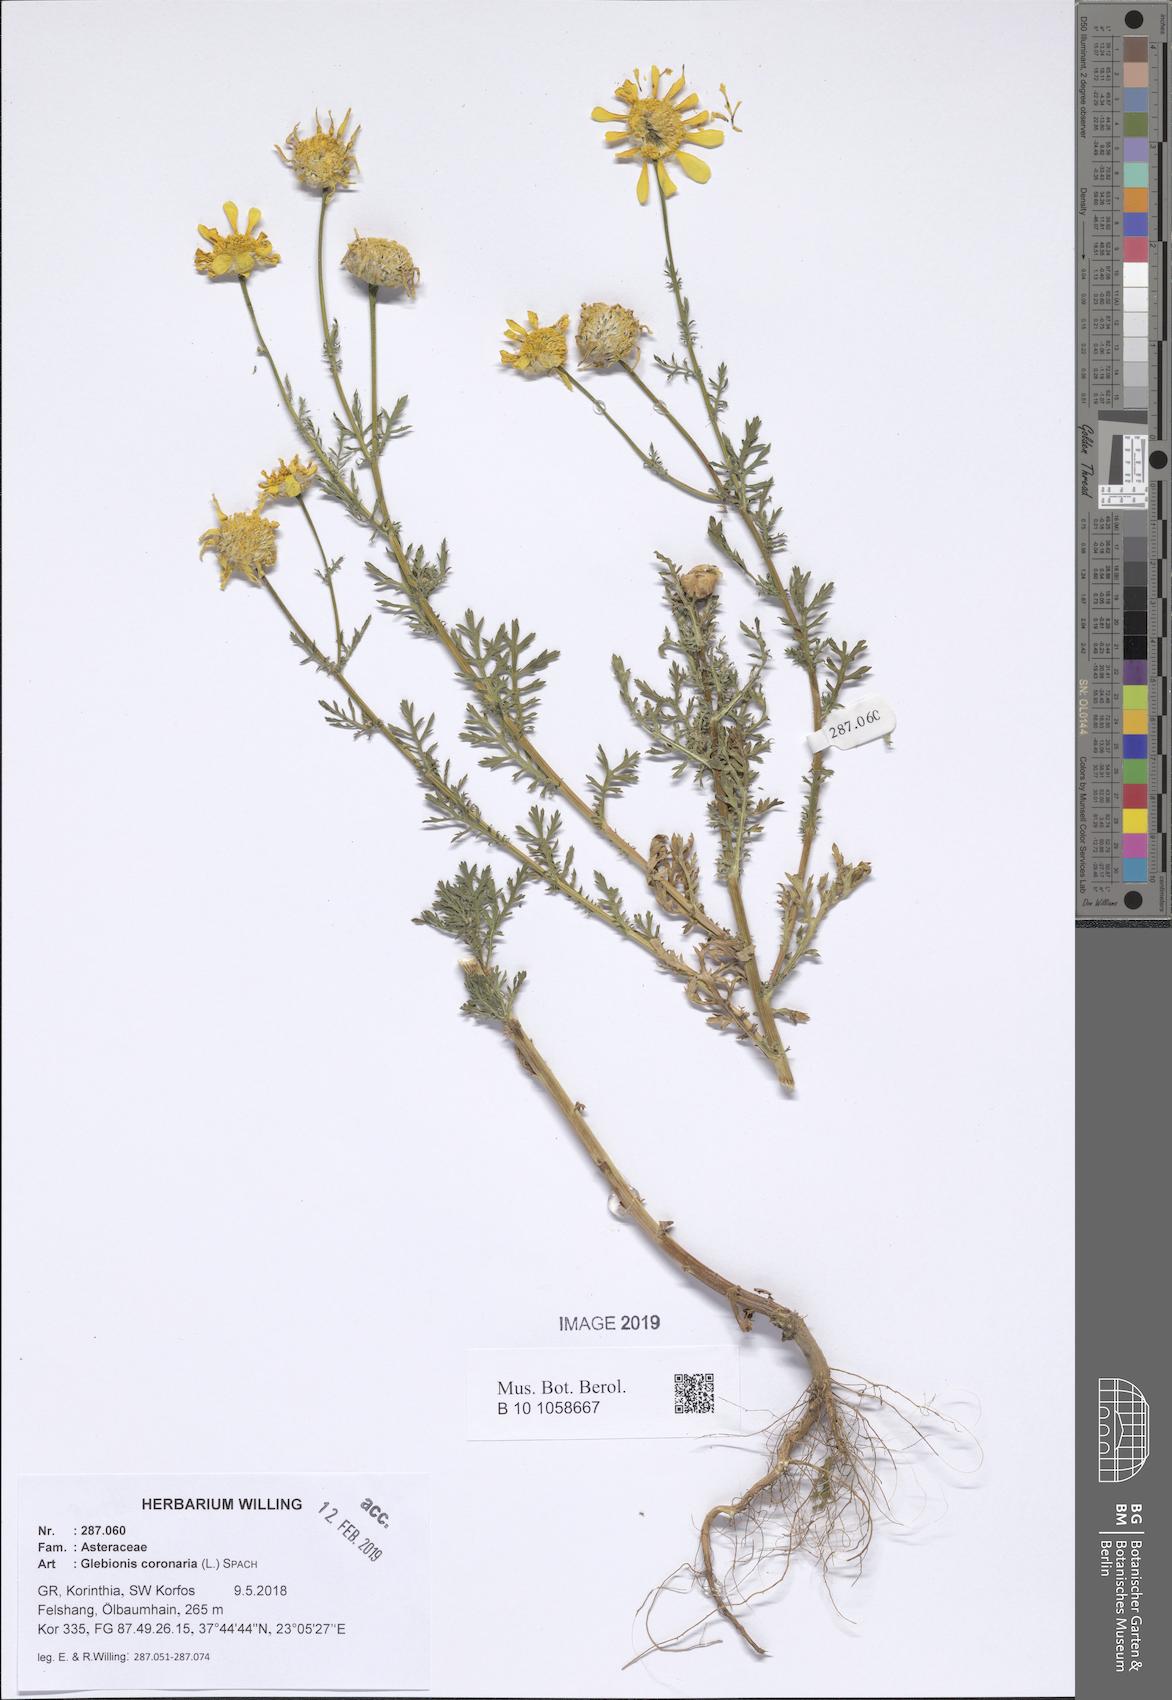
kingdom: Plantae
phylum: Tracheophyta
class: Magnoliopsida
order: Asterales
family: Asteraceae
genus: Glebionis
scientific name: Glebionis coronaria
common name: Crowndaisy
